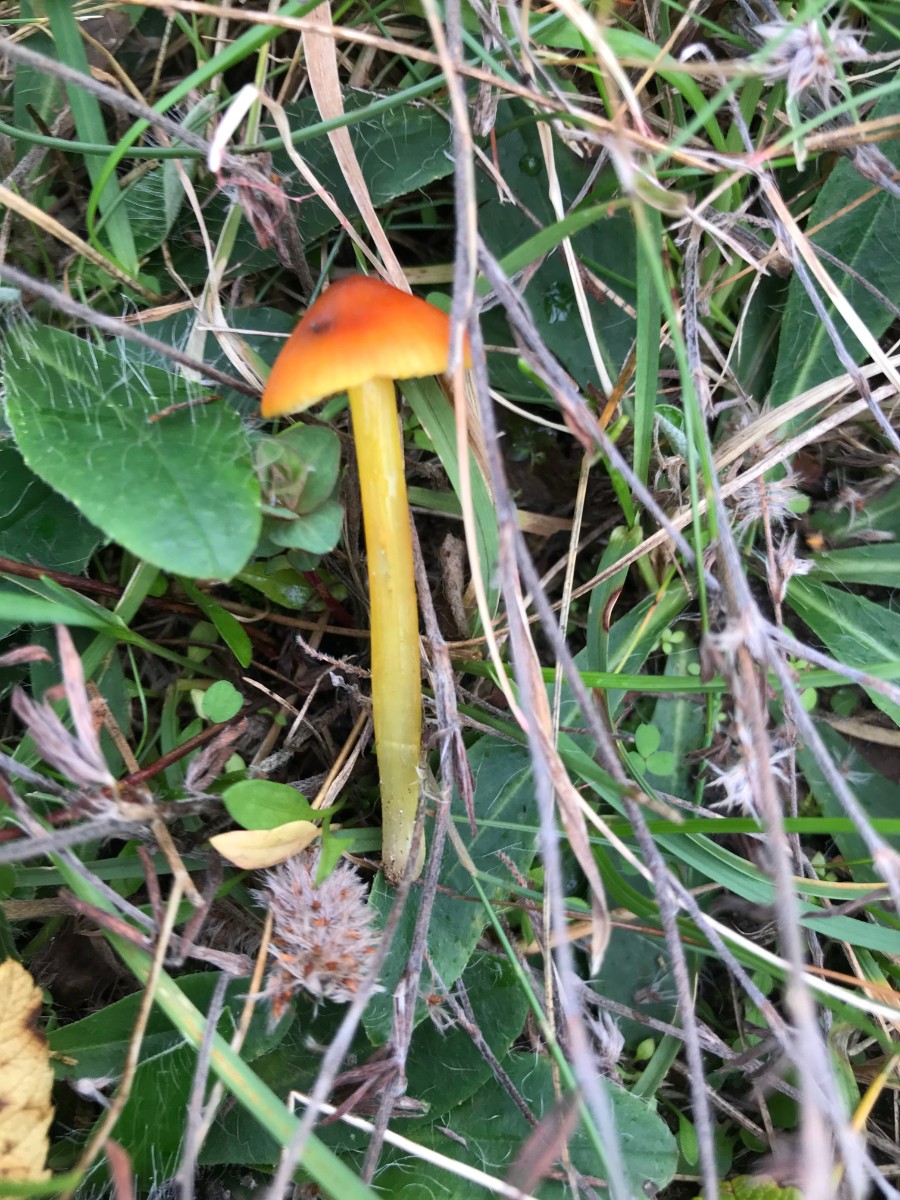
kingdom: Fungi
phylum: Basidiomycota
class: Agaricomycetes
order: Agaricales
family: Hygrophoraceae
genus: Hygrocybe
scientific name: Hygrocybe conica
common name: kegle-vokshat
